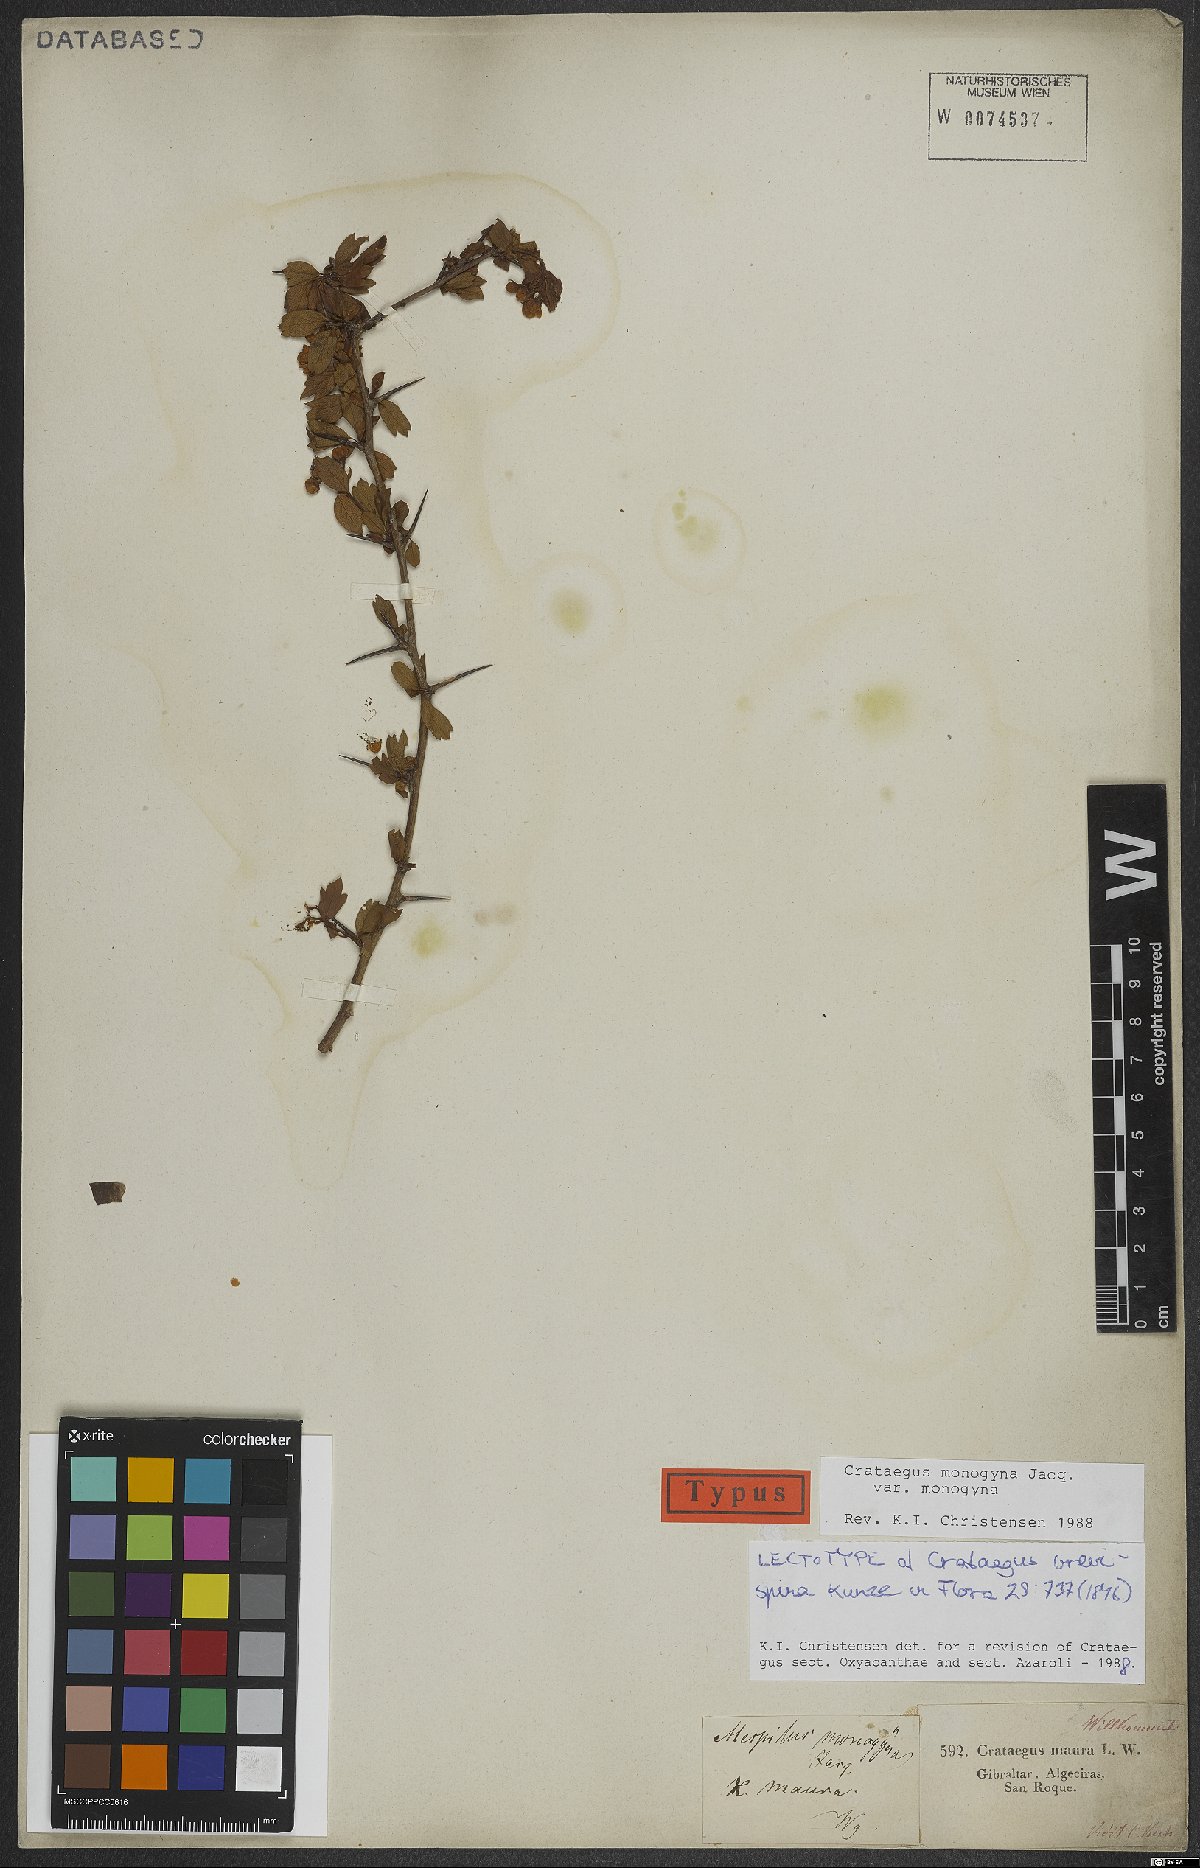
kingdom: Plantae
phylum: Tracheophyta
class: Magnoliopsida
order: Rosales
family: Rosaceae
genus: Crataegus
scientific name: Crataegus monogyna
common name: Hawthorn
